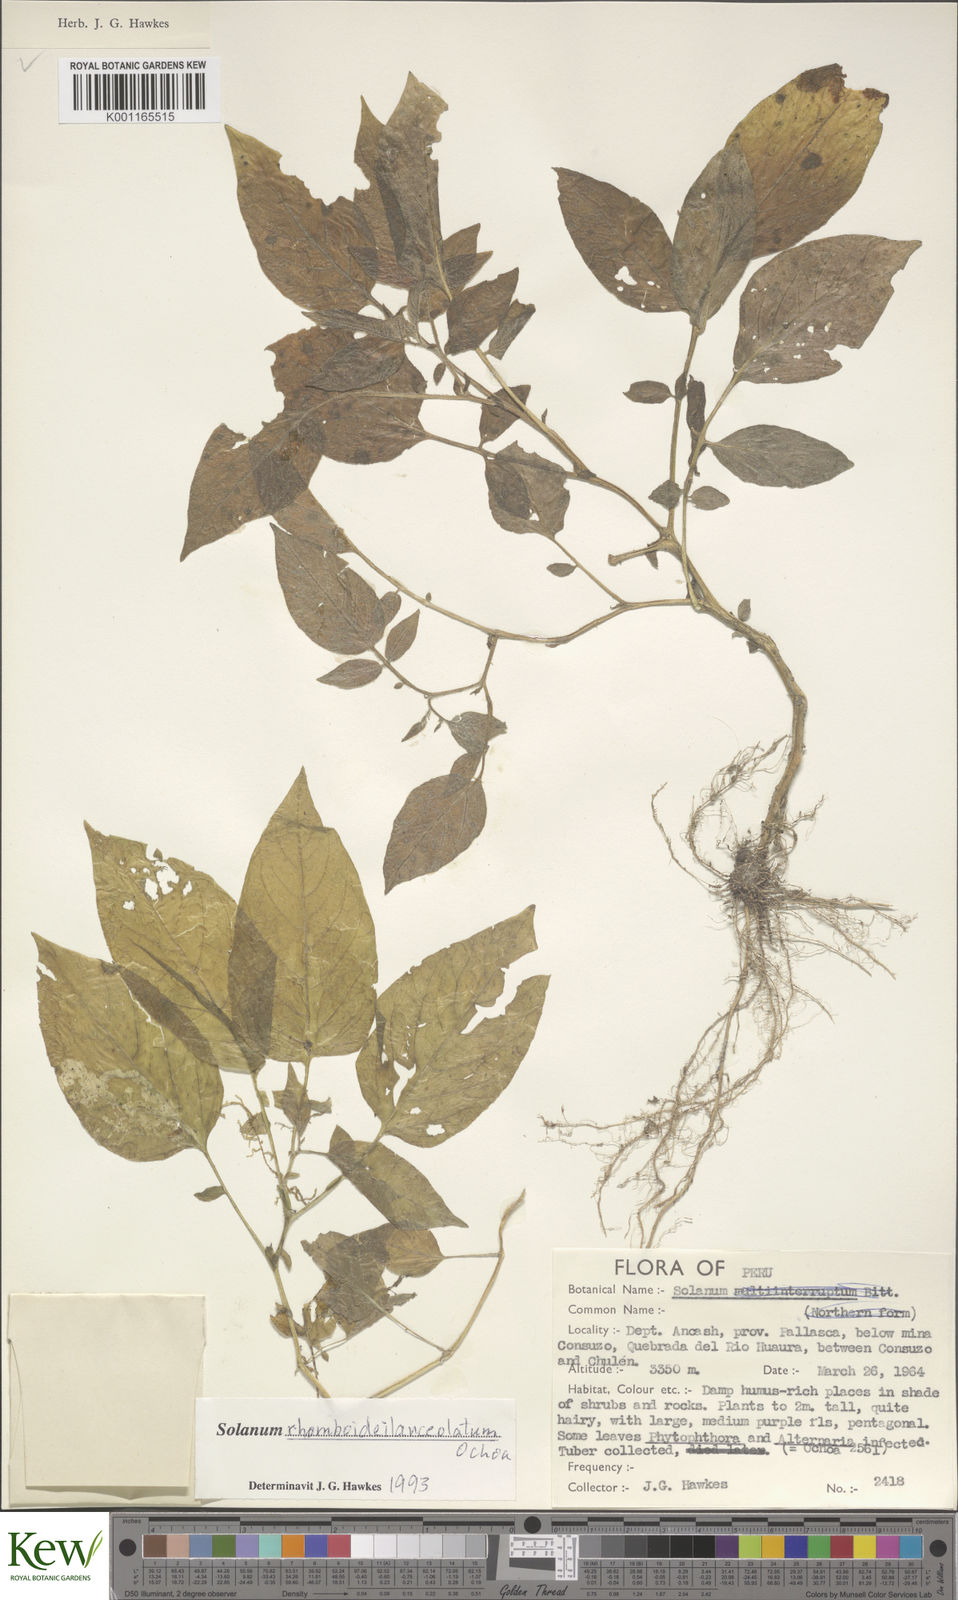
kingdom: Plantae
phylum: Tracheophyta
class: Magnoliopsida
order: Solanales
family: Solanaceae
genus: Solanum
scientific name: Solanum rhomboideilanceolatum
